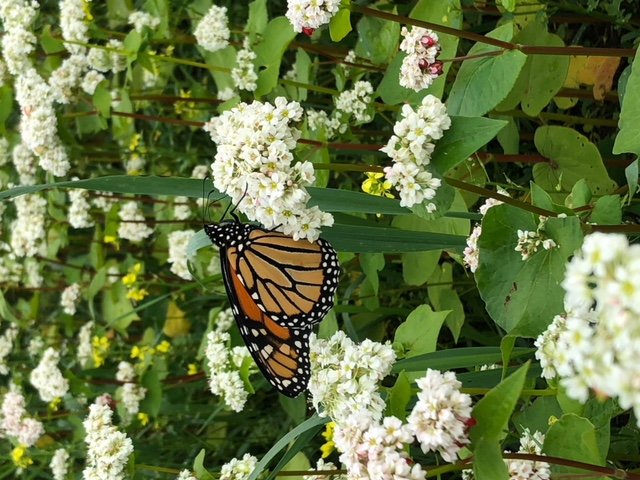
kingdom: Animalia
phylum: Arthropoda
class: Insecta
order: Lepidoptera
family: Nymphalidae
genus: Danaus
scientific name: Danaus plexippus
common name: Monarch
